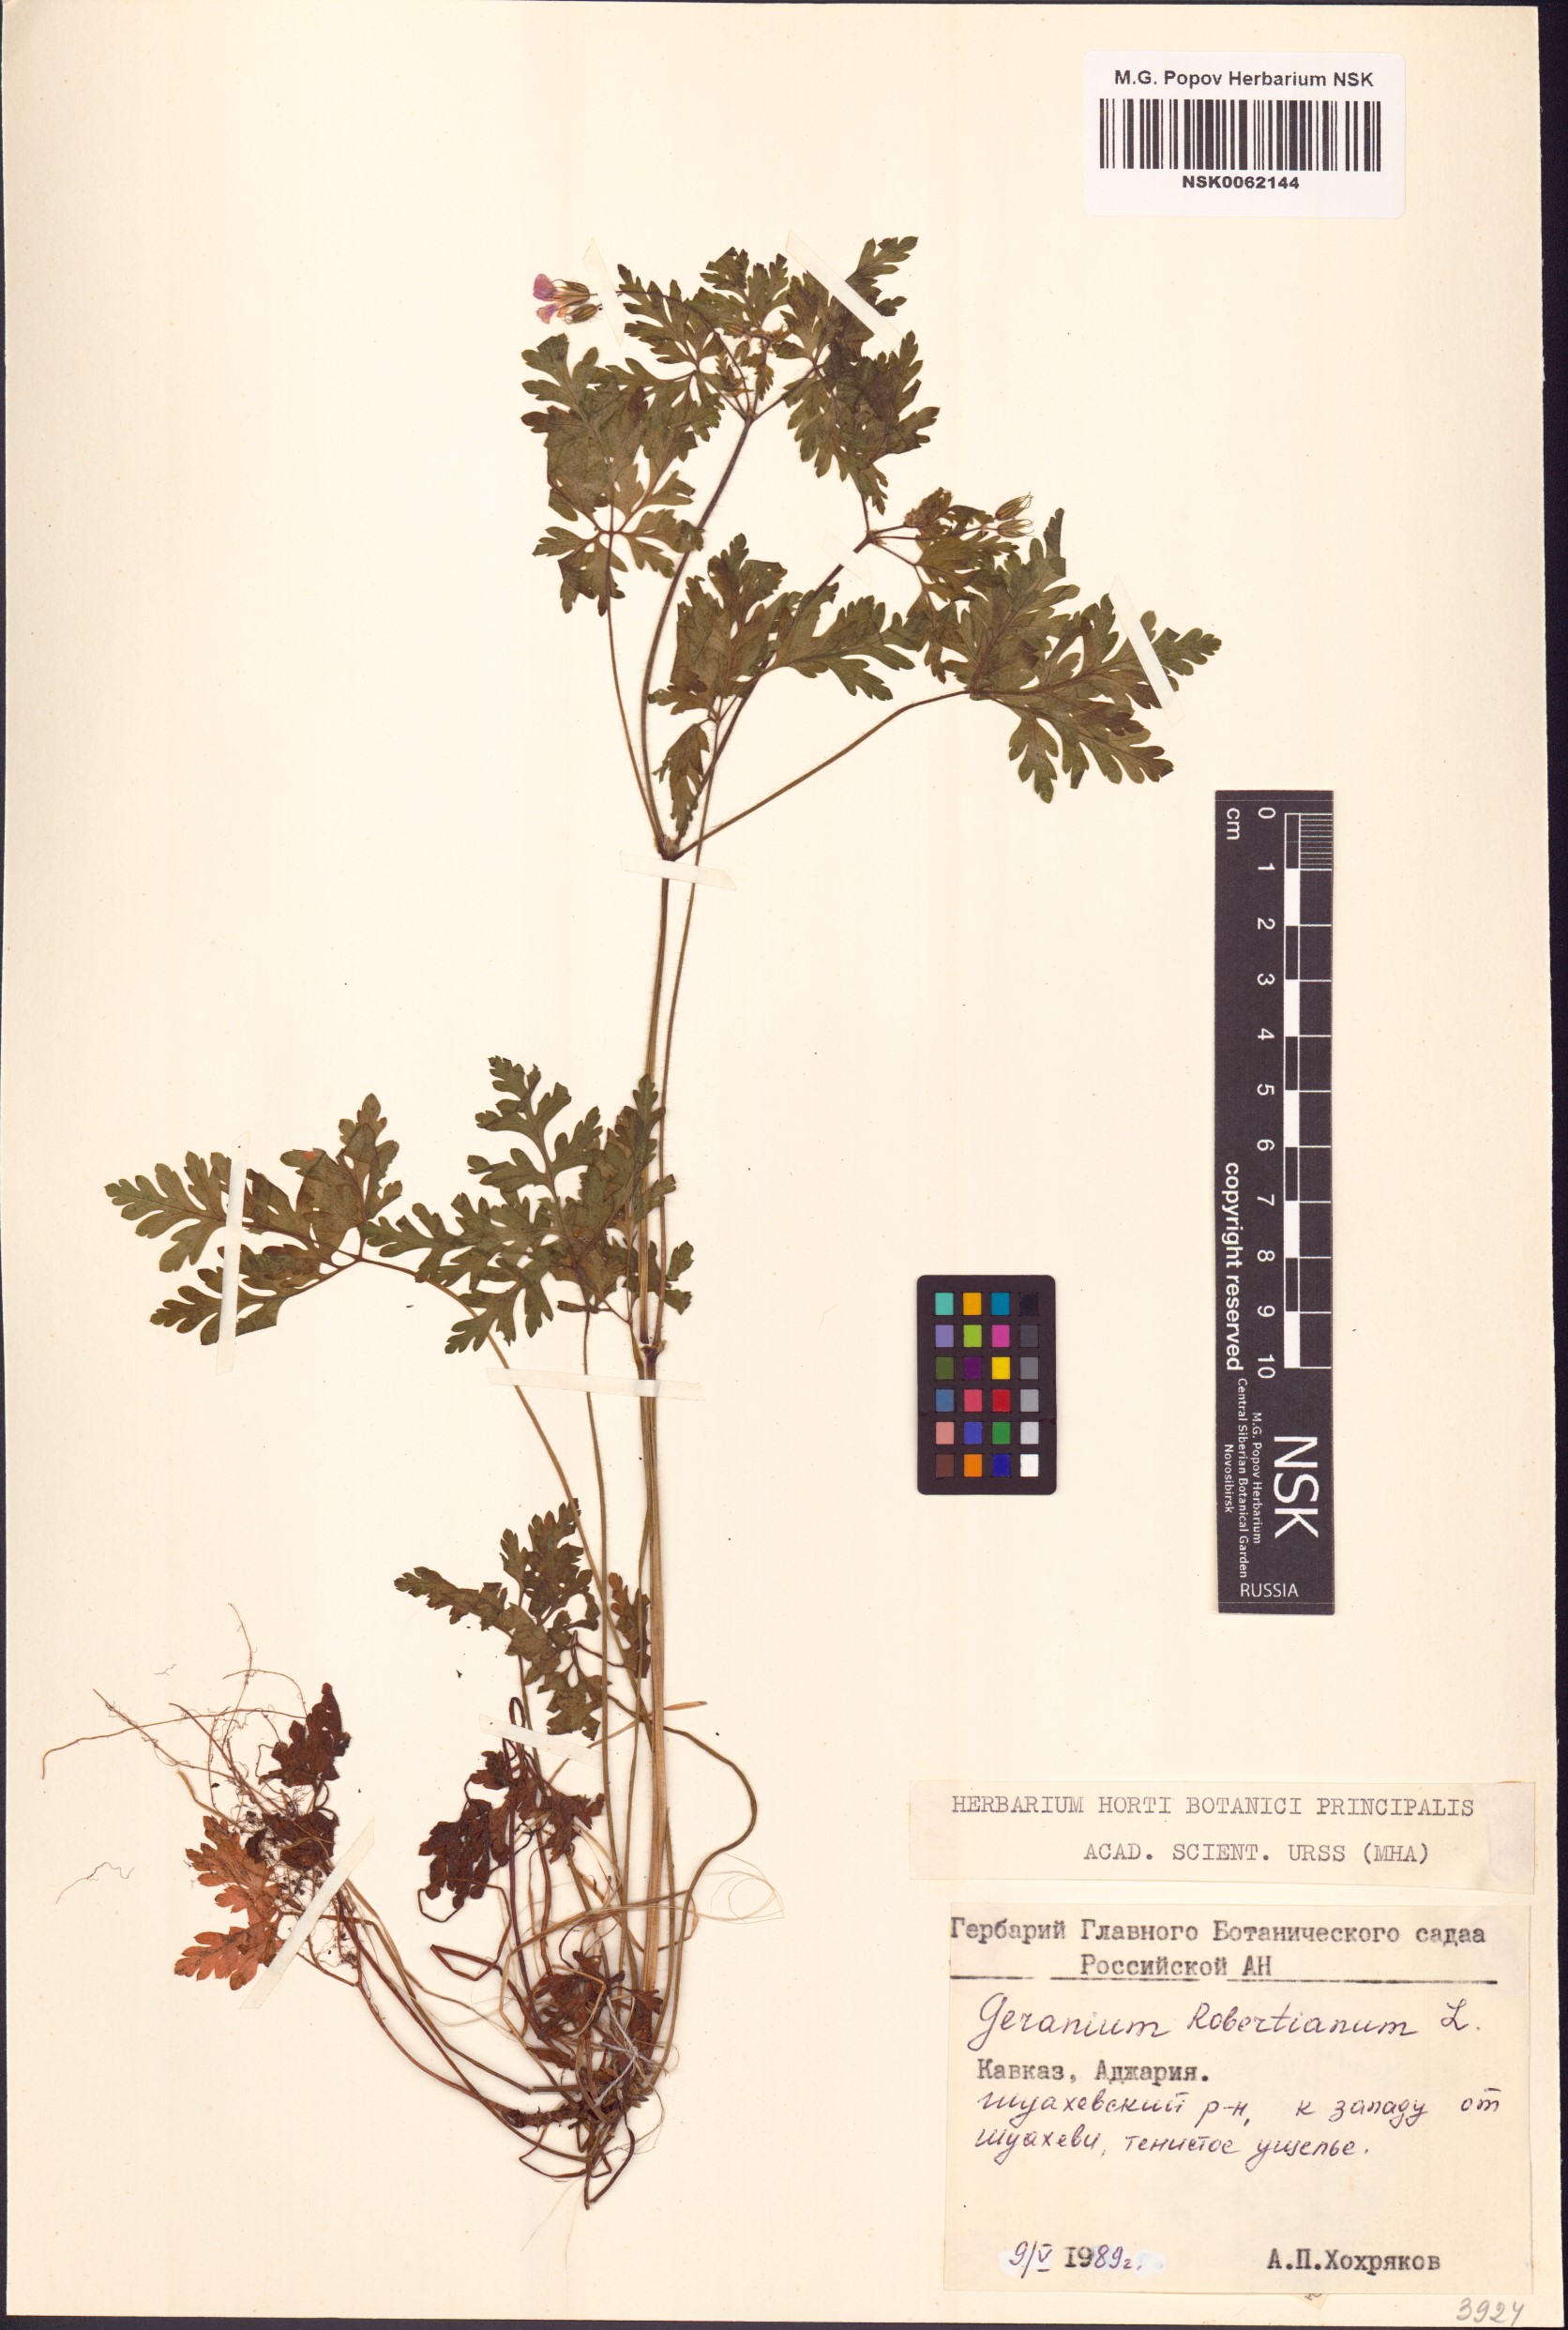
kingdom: Plantae
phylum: Tracheophyta
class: Magnoliopsida
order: Geraniales
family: Geraniaceae
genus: Geranium
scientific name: Geranium robertianum
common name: Herb-robert
